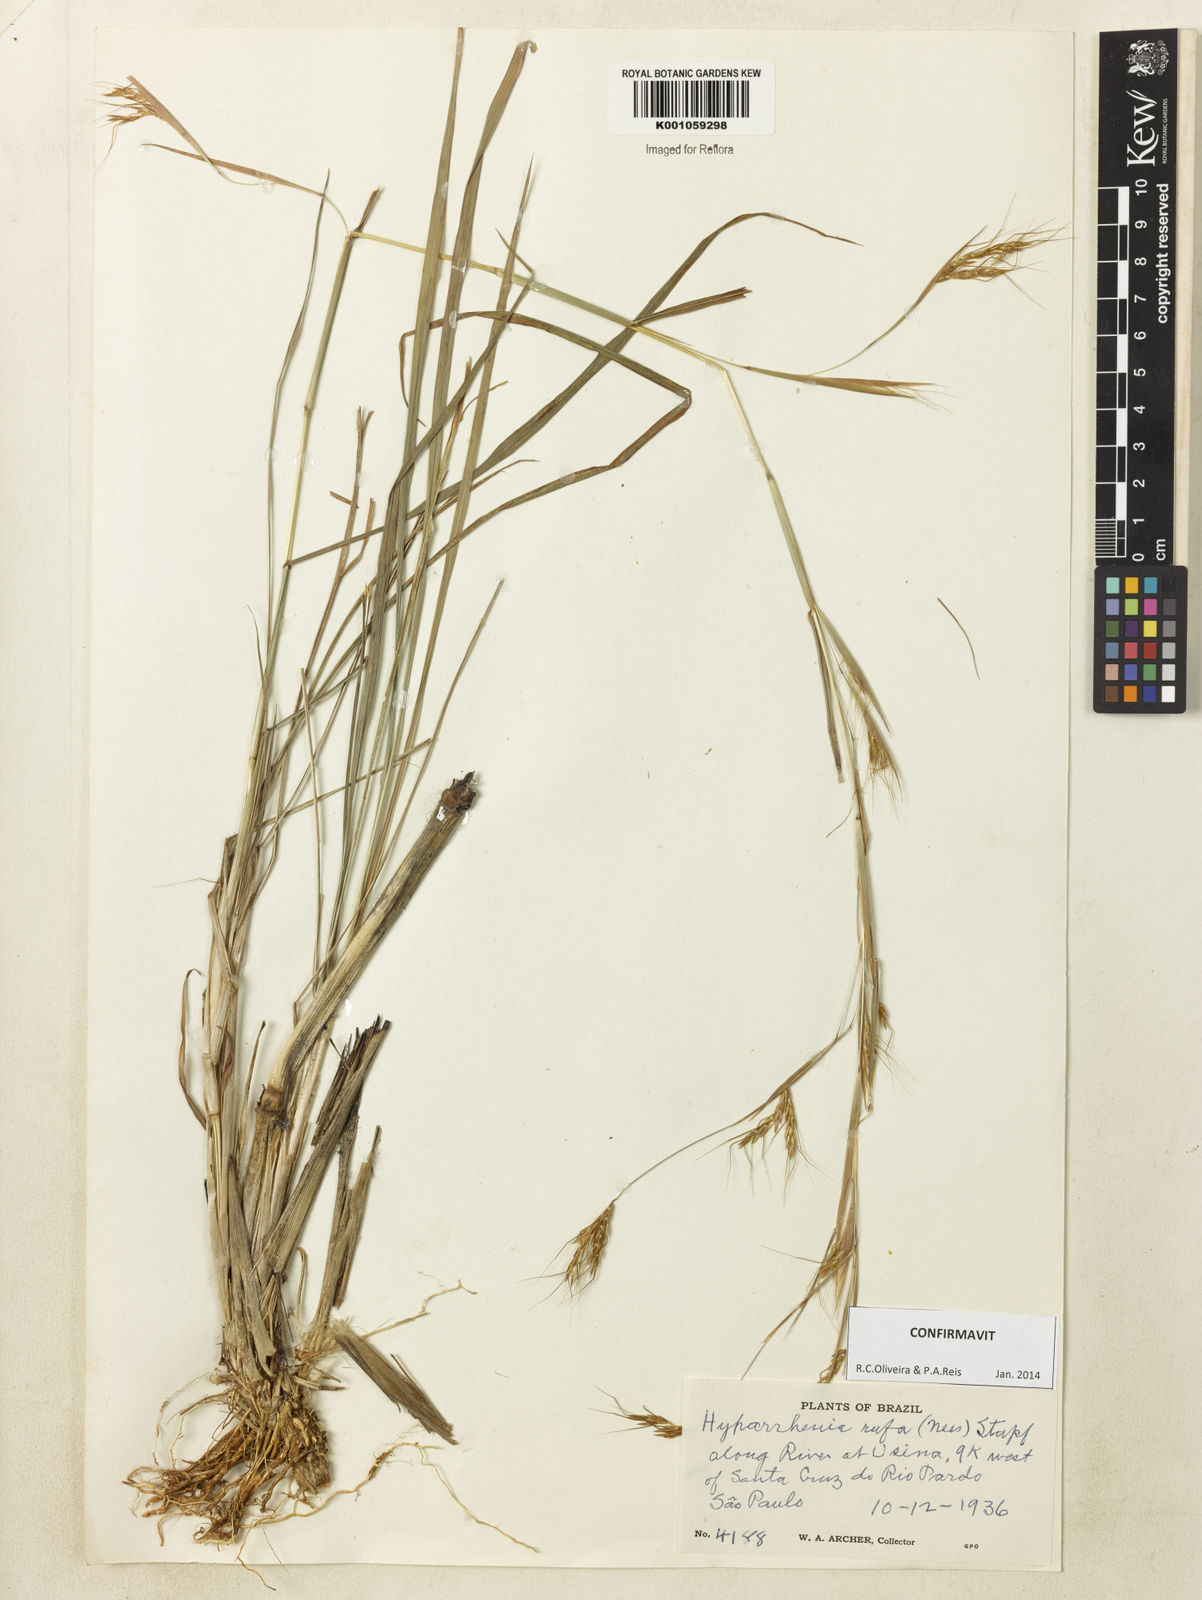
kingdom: Plantae
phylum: Tracheophyta
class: Liliopsida
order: Poales
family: Poaceae
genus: Hyparrhenia
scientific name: Hyparrhenia rufa
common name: Jaraguagrass
